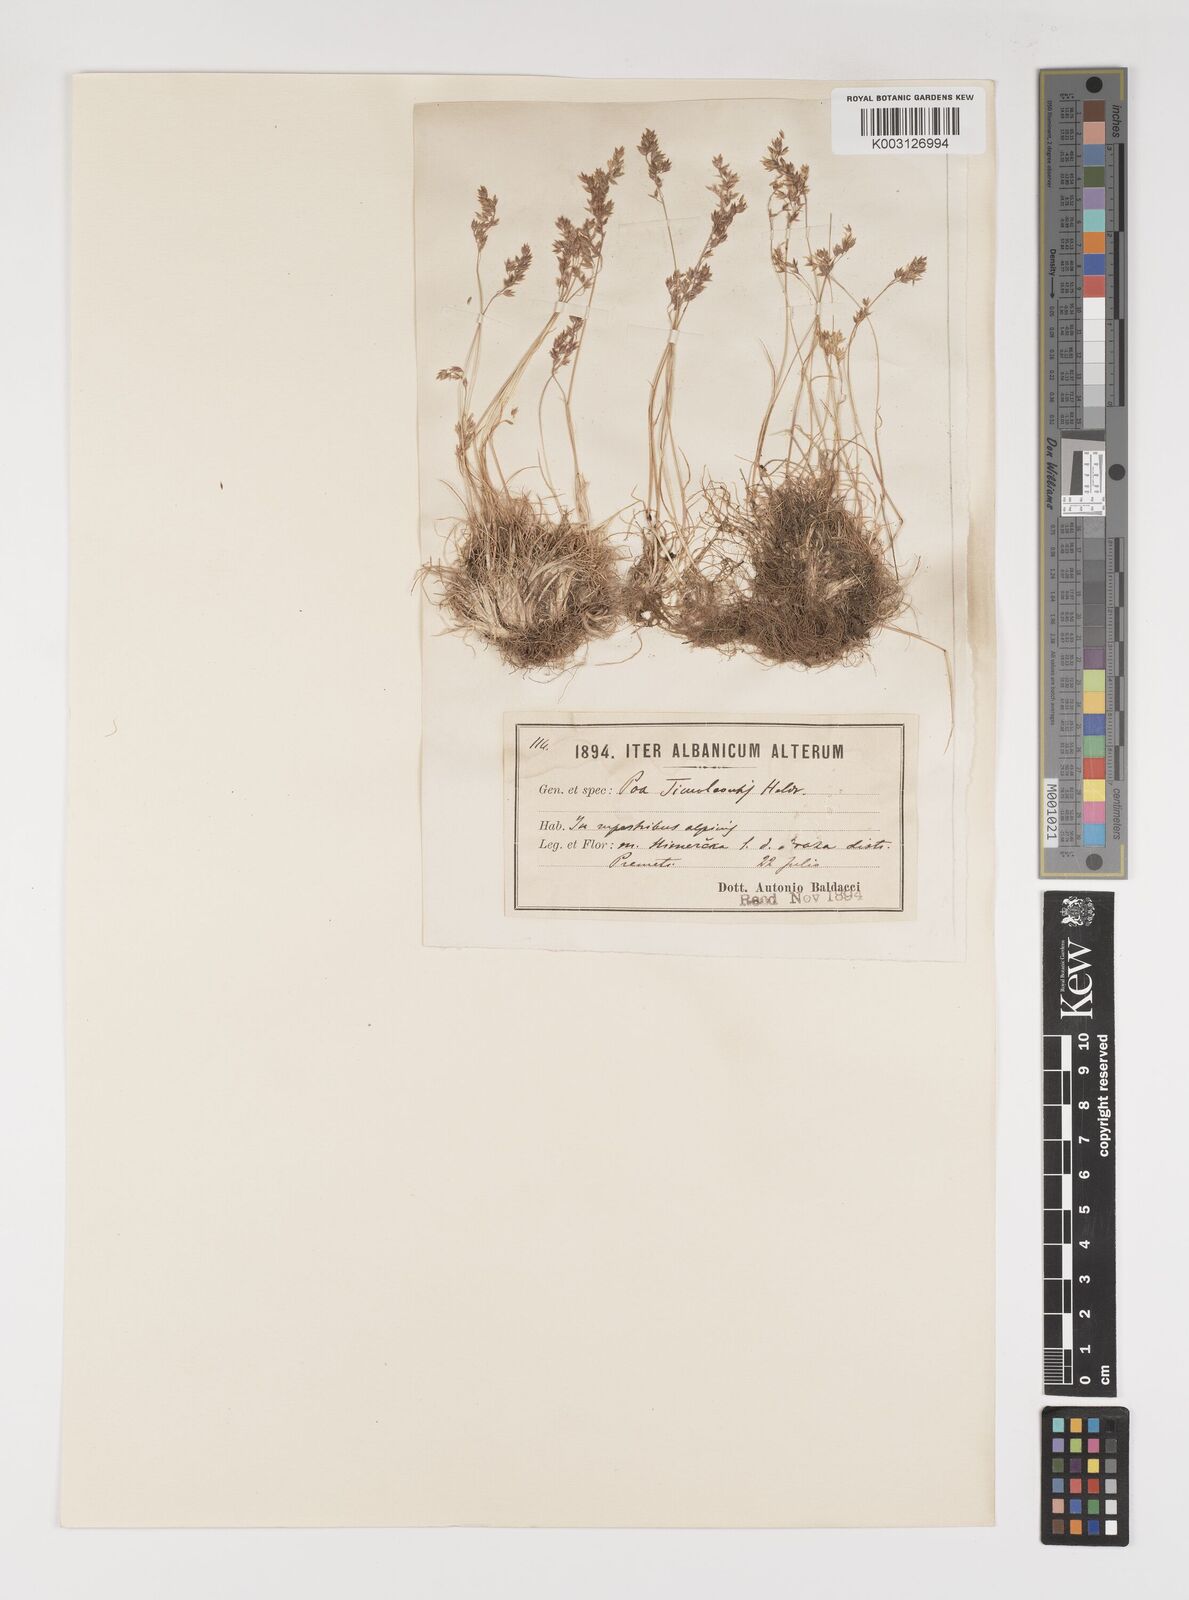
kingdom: Plantae
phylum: Tracheophyta
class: Liliopsida
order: Poales
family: Poaceae
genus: Poa
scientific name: Poa timoleontis
